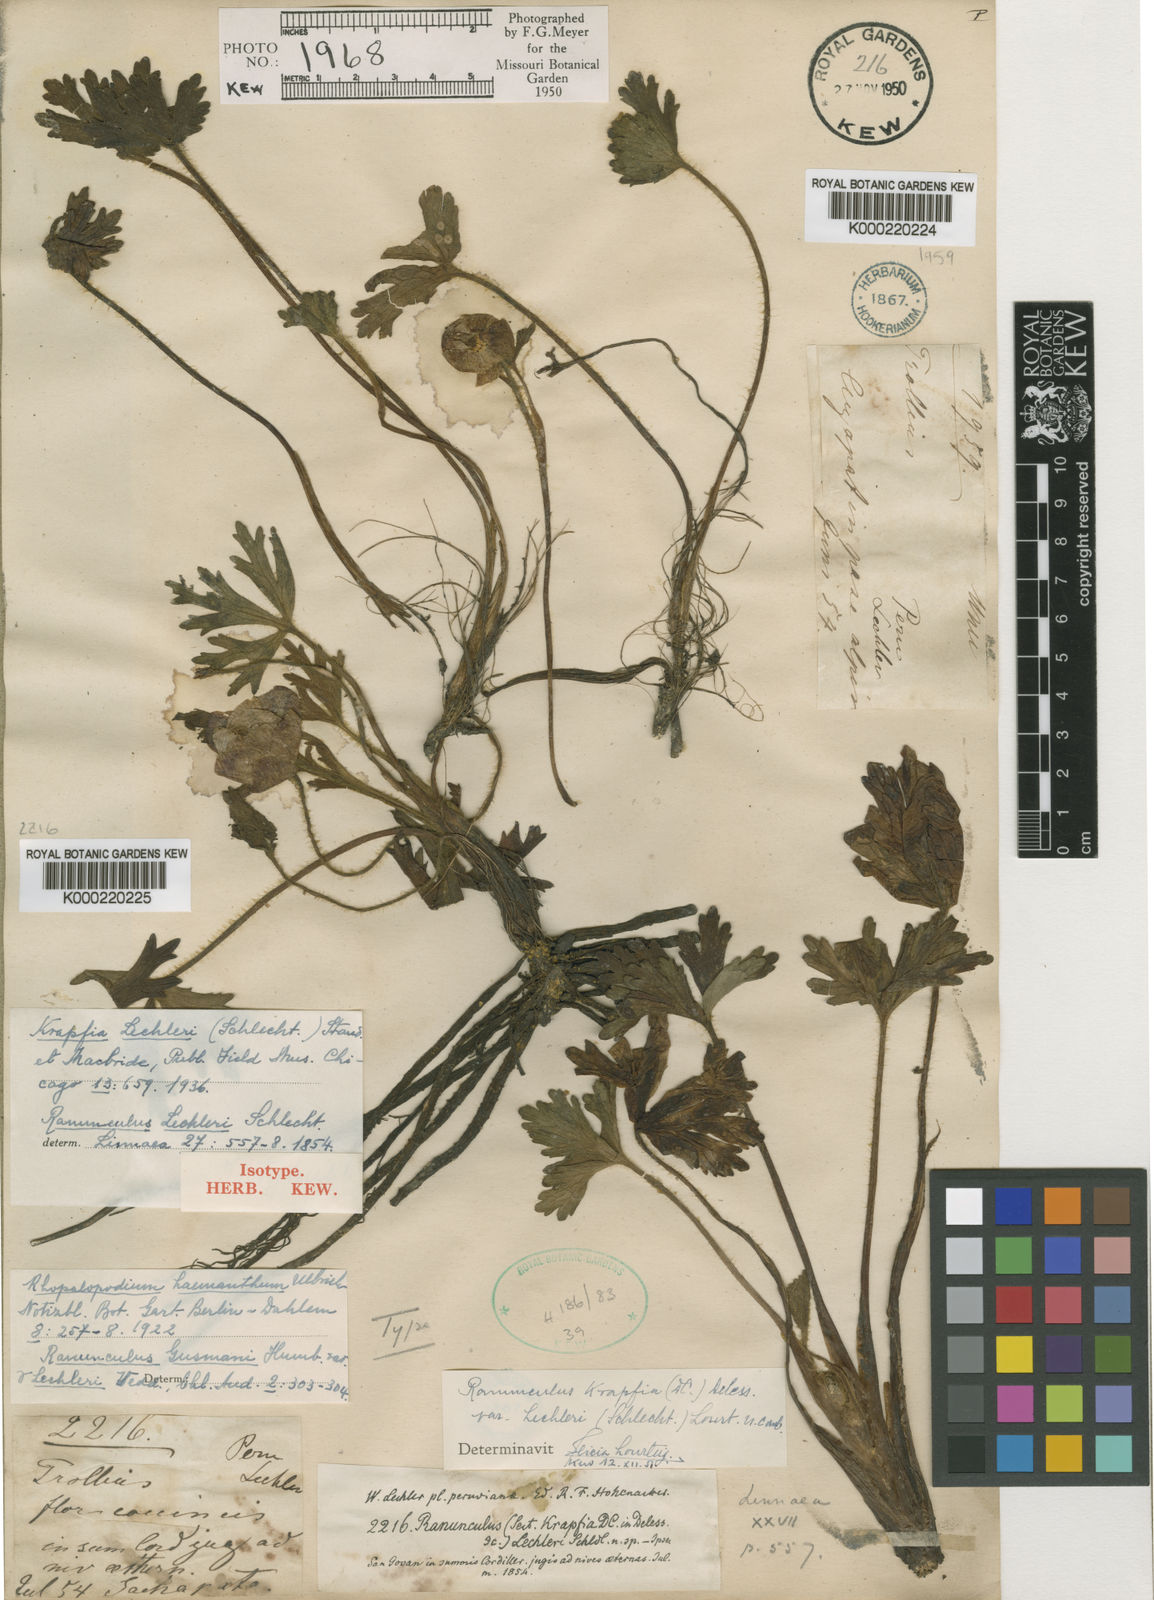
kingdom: Plantae
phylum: Tracheophyta
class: Magnoliopsida
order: Ranunculales
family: Ranunculaceae
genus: Krapfia
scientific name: Krapfia lechleri
